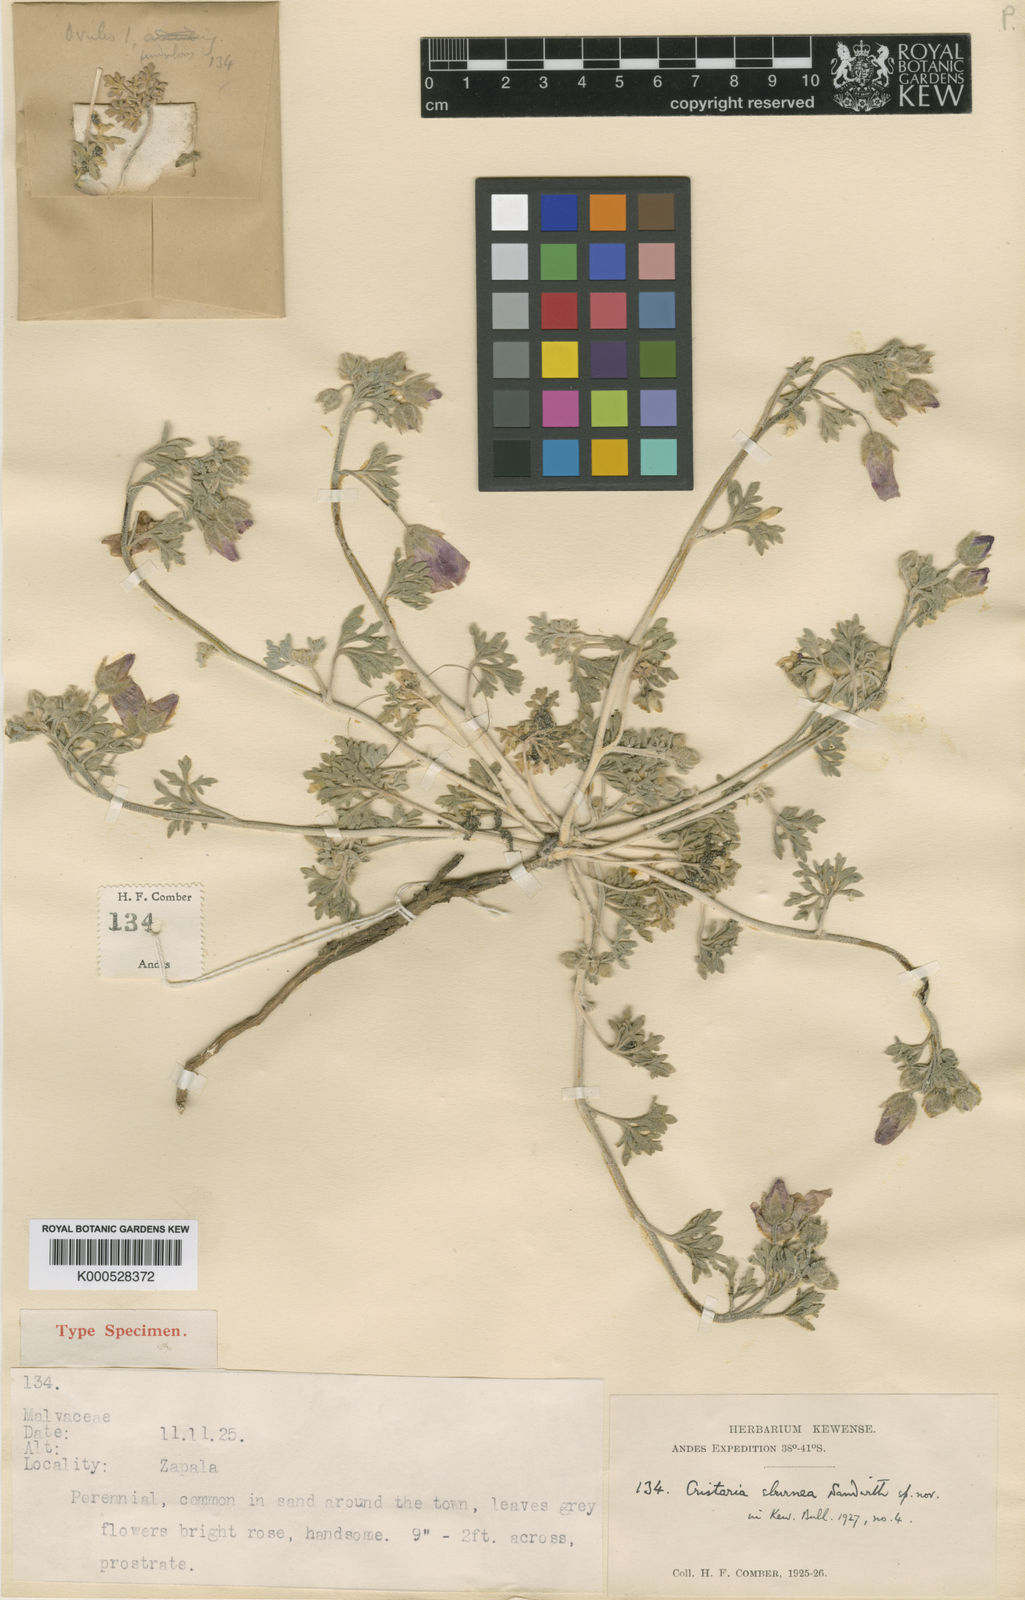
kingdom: Plantae
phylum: Tracheophyta
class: Magnoliopsida
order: Malvales
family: Malvaceae
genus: Lecanophora
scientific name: Lecanophora ameghinoi
